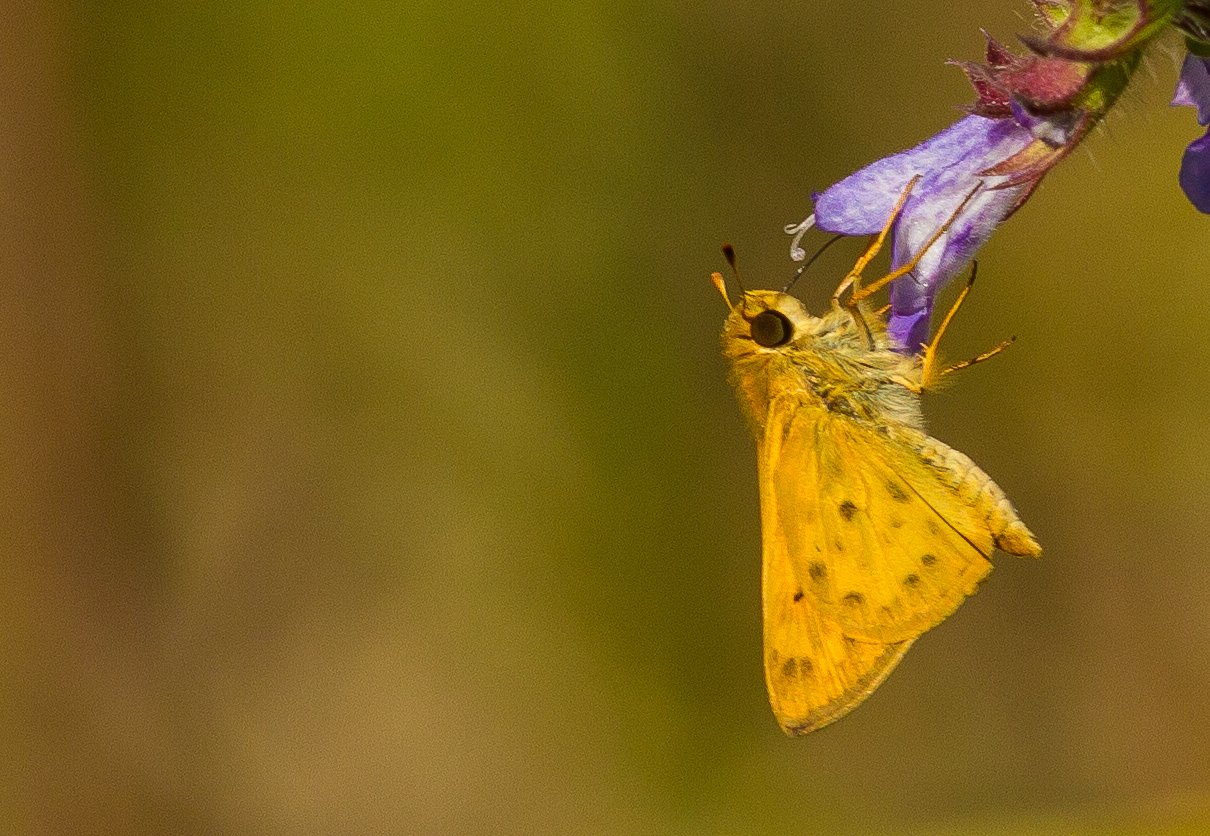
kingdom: Animalia
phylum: Arthropoda
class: Insecta
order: Lepidoptera
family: Hesperiidae
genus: Hylephila
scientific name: Hylephila phyleus
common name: Fiery Skipper
